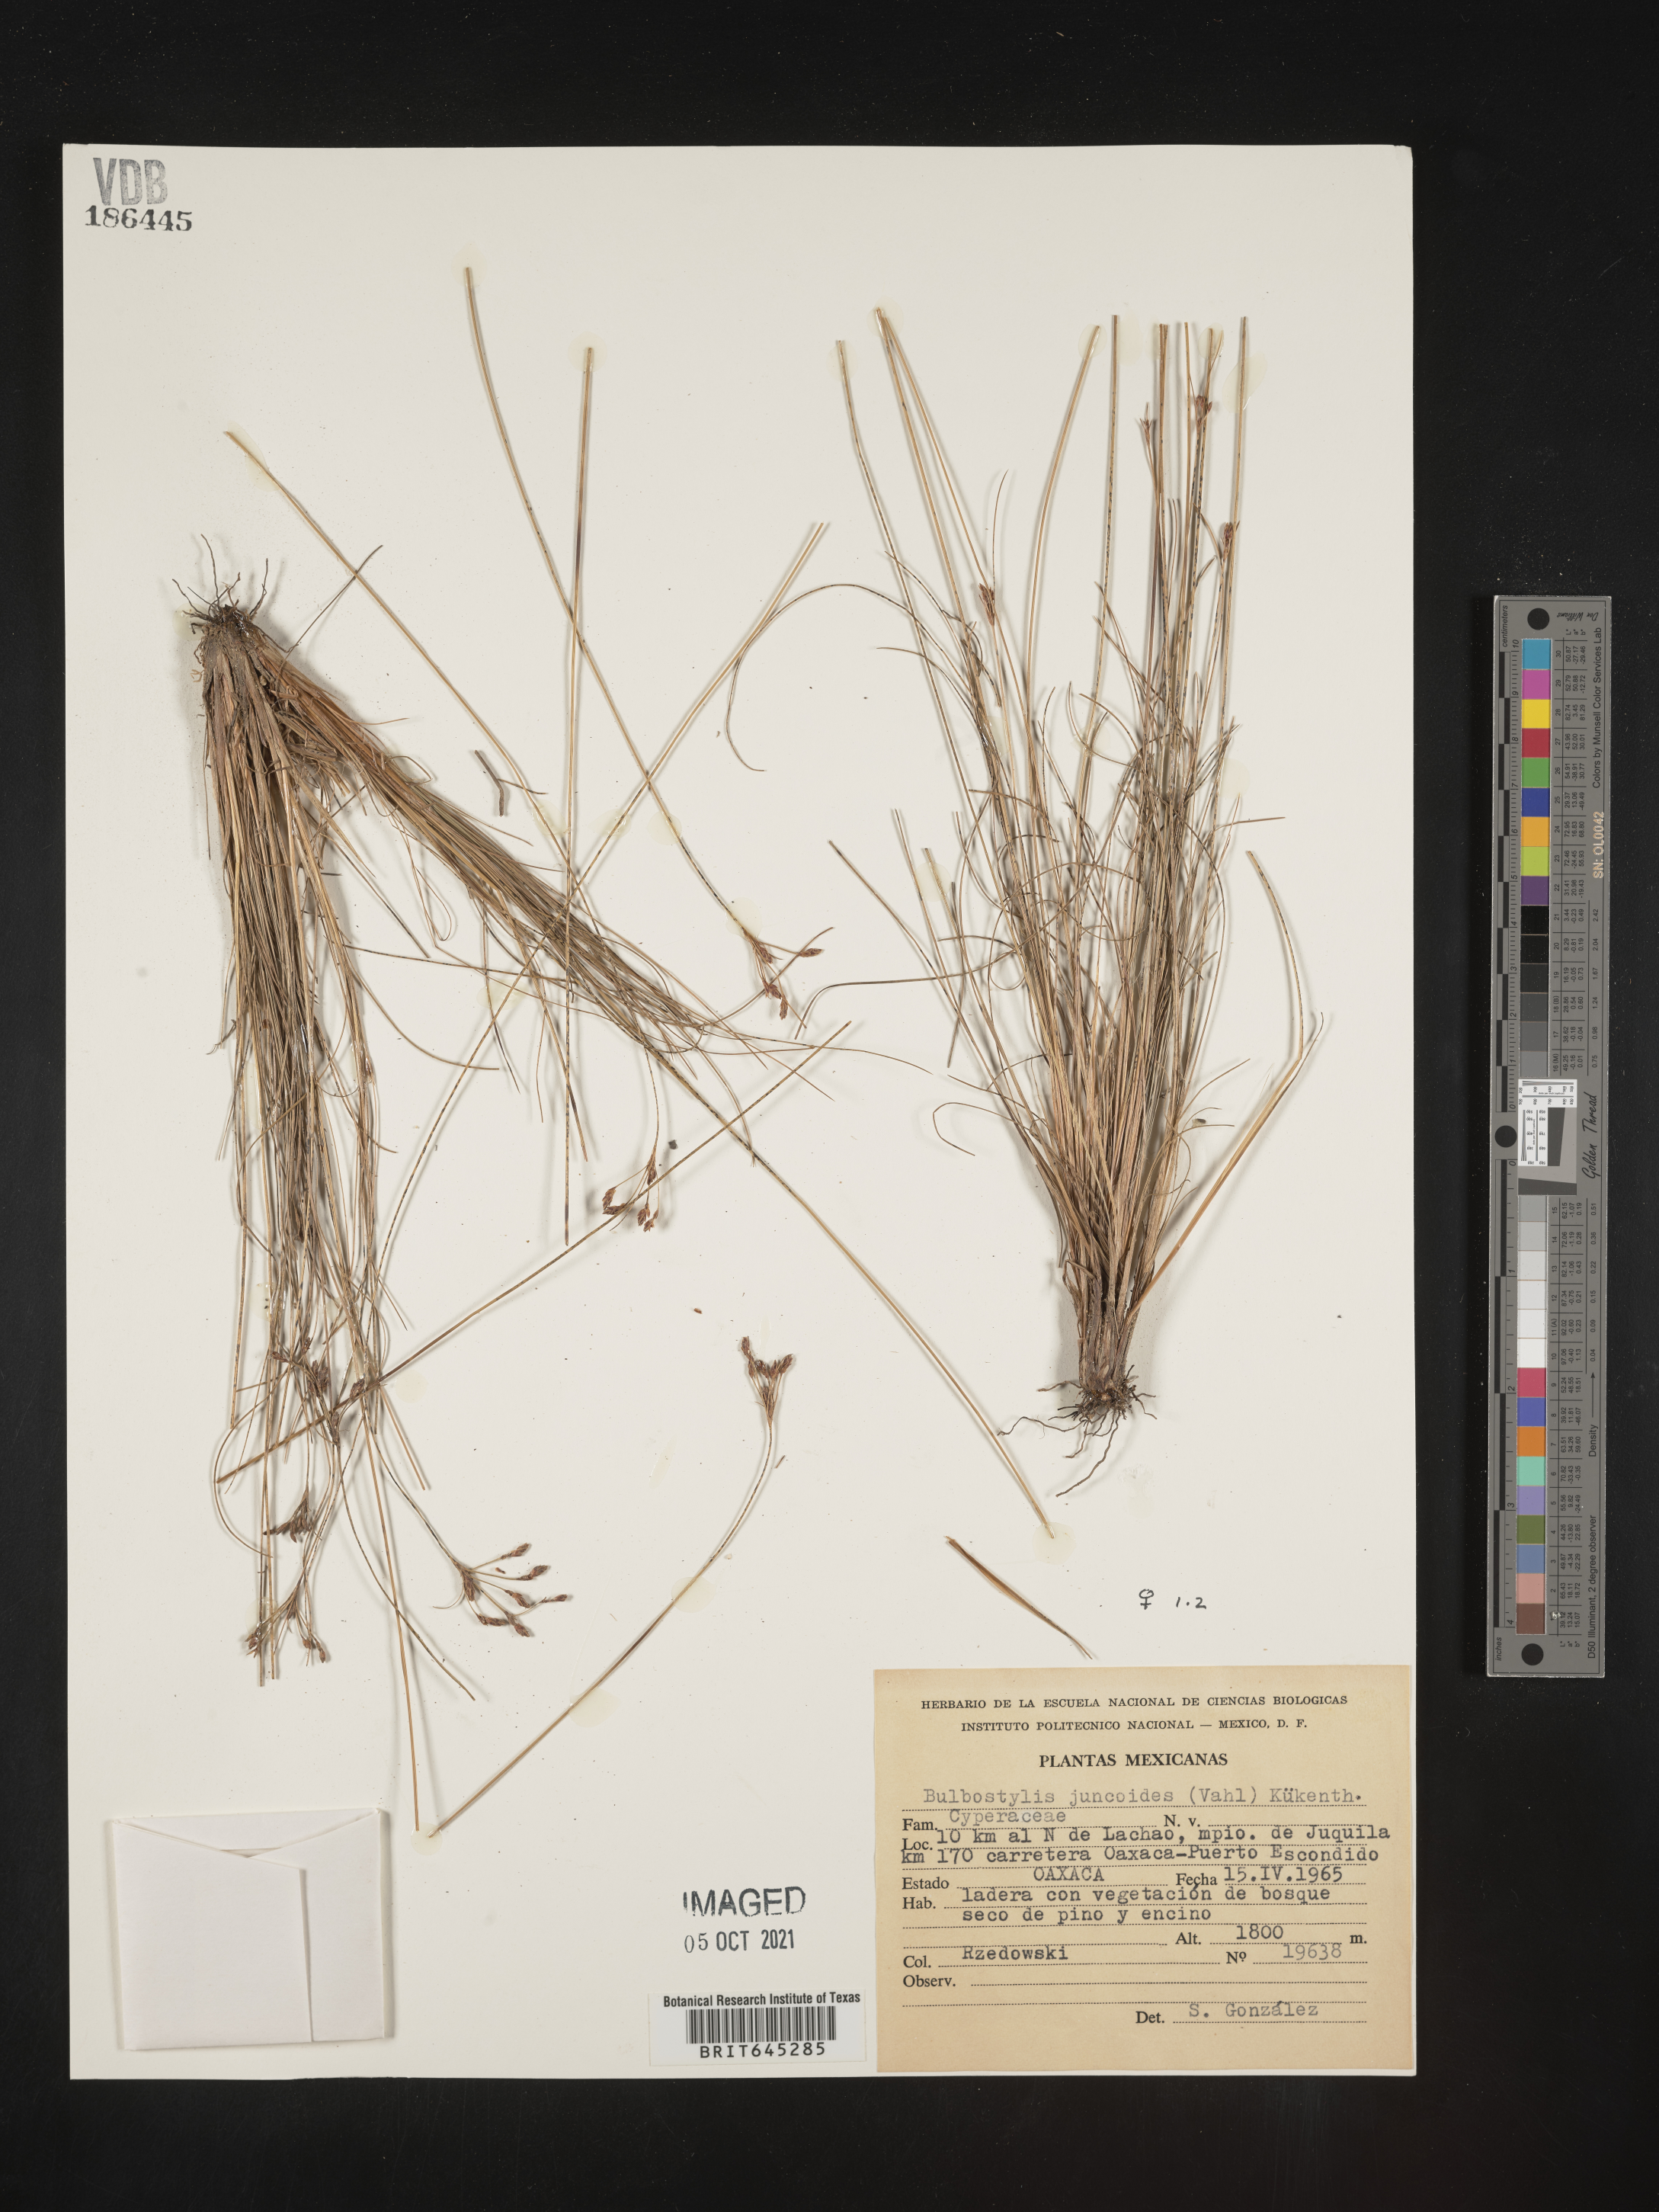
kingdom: Plantae
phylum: Tracheophyta
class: Liliopsida
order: Poales
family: Cyperaceae
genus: Bulbostylis
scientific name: Bulbostylis juncoides
